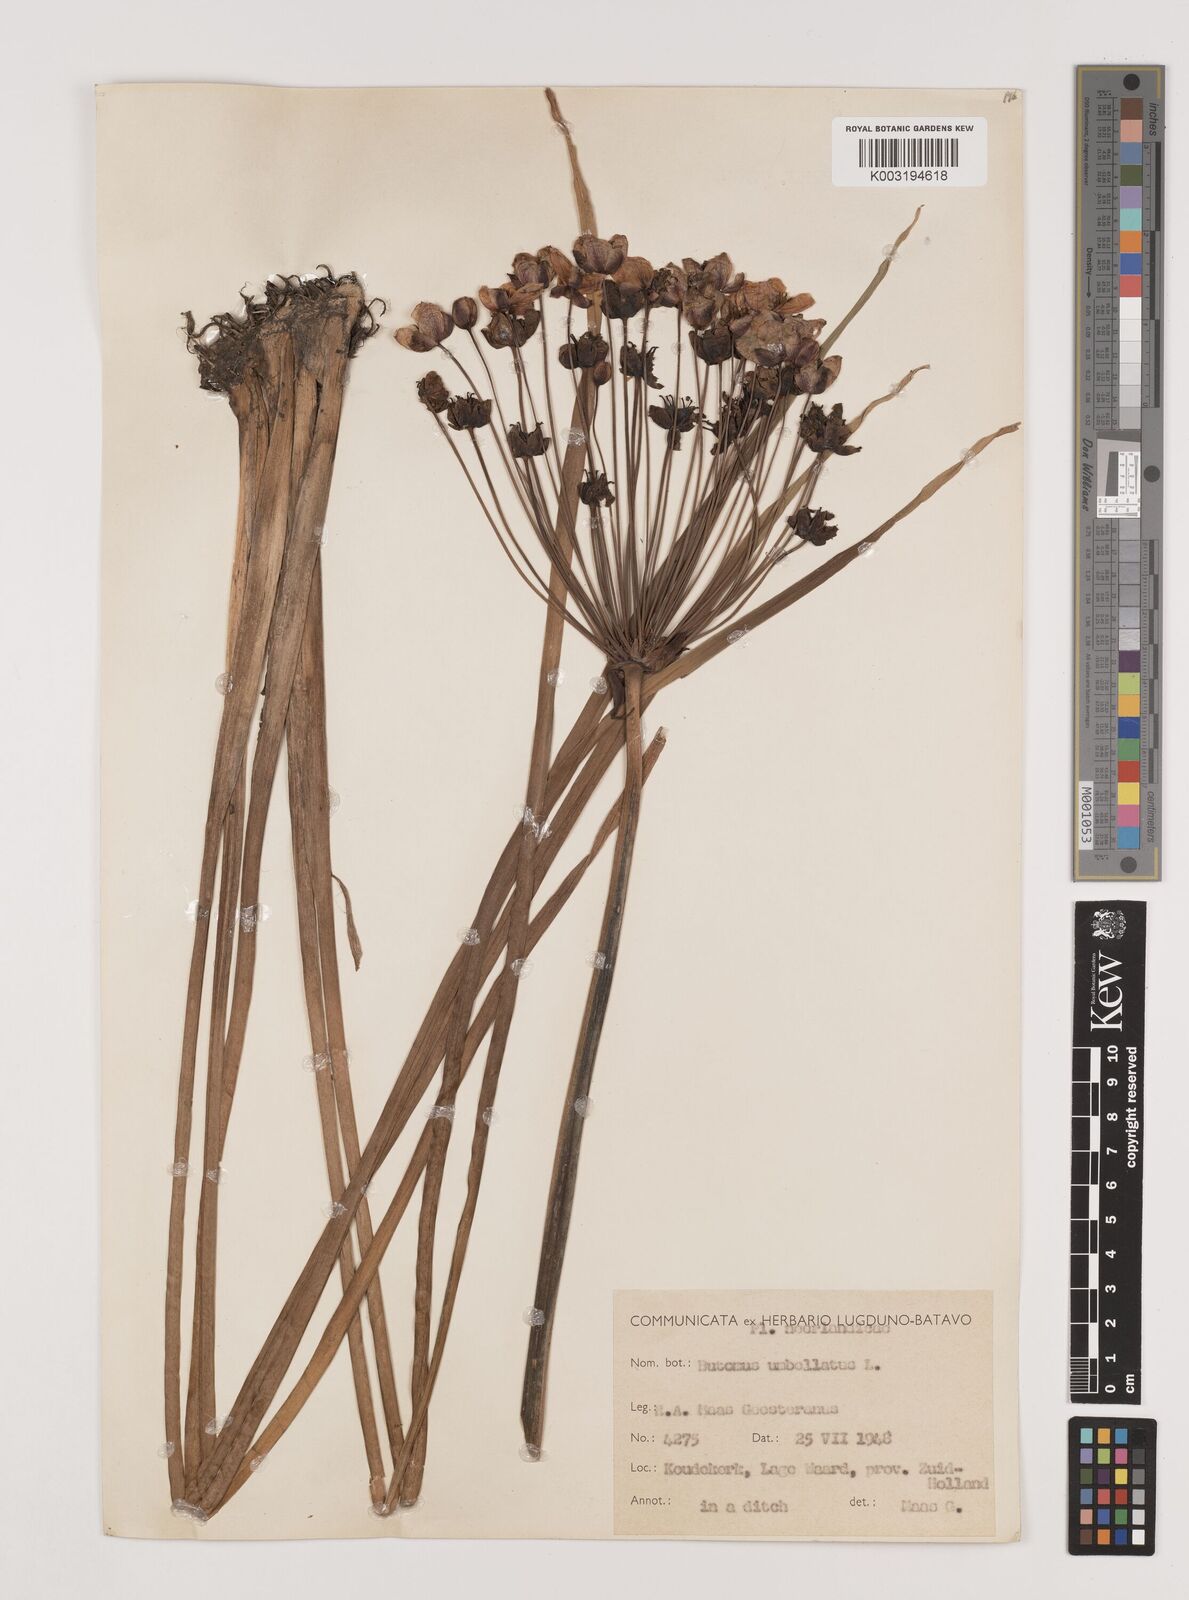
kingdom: Plantae
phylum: Tracheophyta
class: Liliopsida
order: Alismatales
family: Butomaceae
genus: Butomus
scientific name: Butomus umbellatus
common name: Flowering-rush
